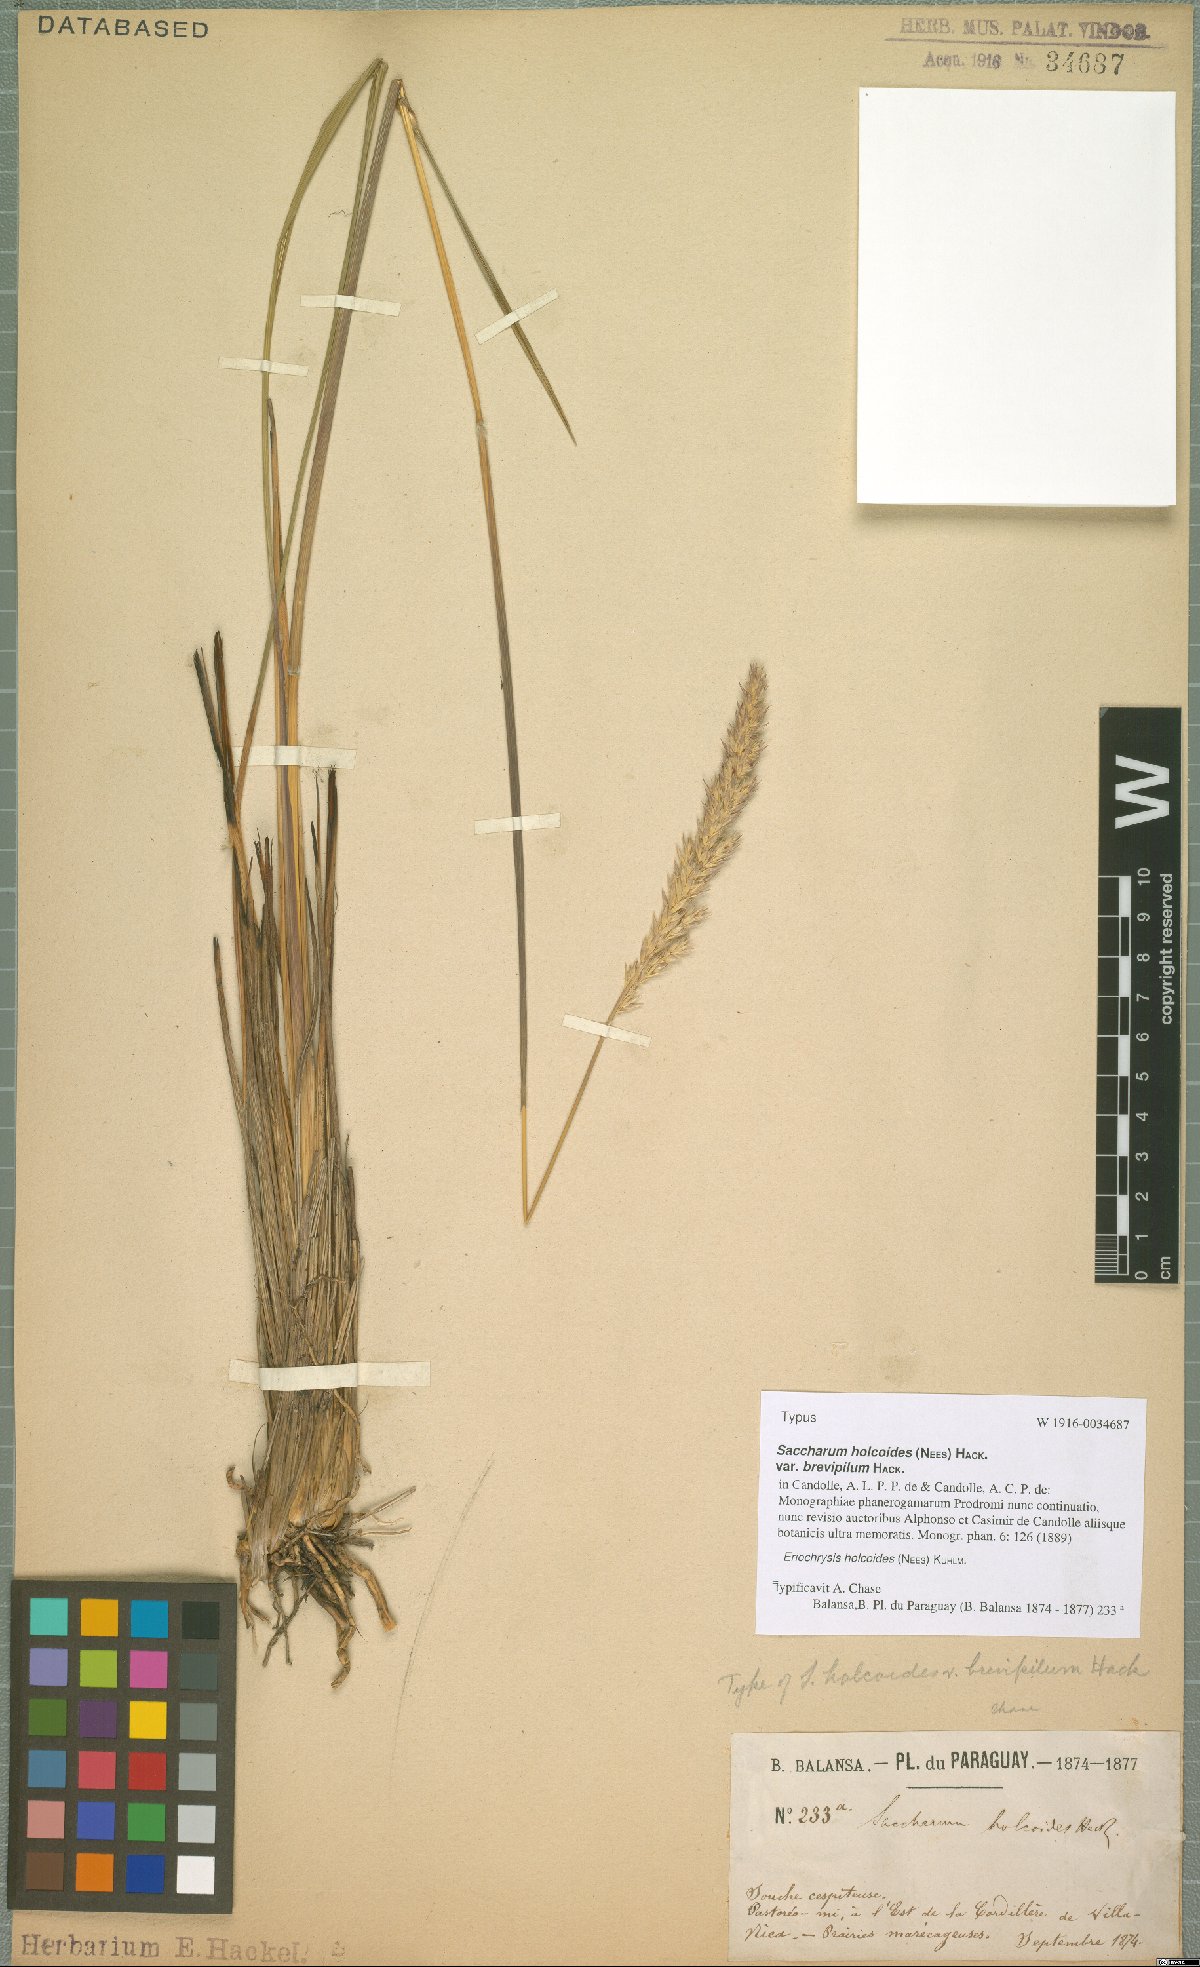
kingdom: Plantae
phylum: Tracheophyta
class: Liliopsida
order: Poales
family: Poaceae
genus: Eriochrysis
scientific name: Eriochrysis holcoides
